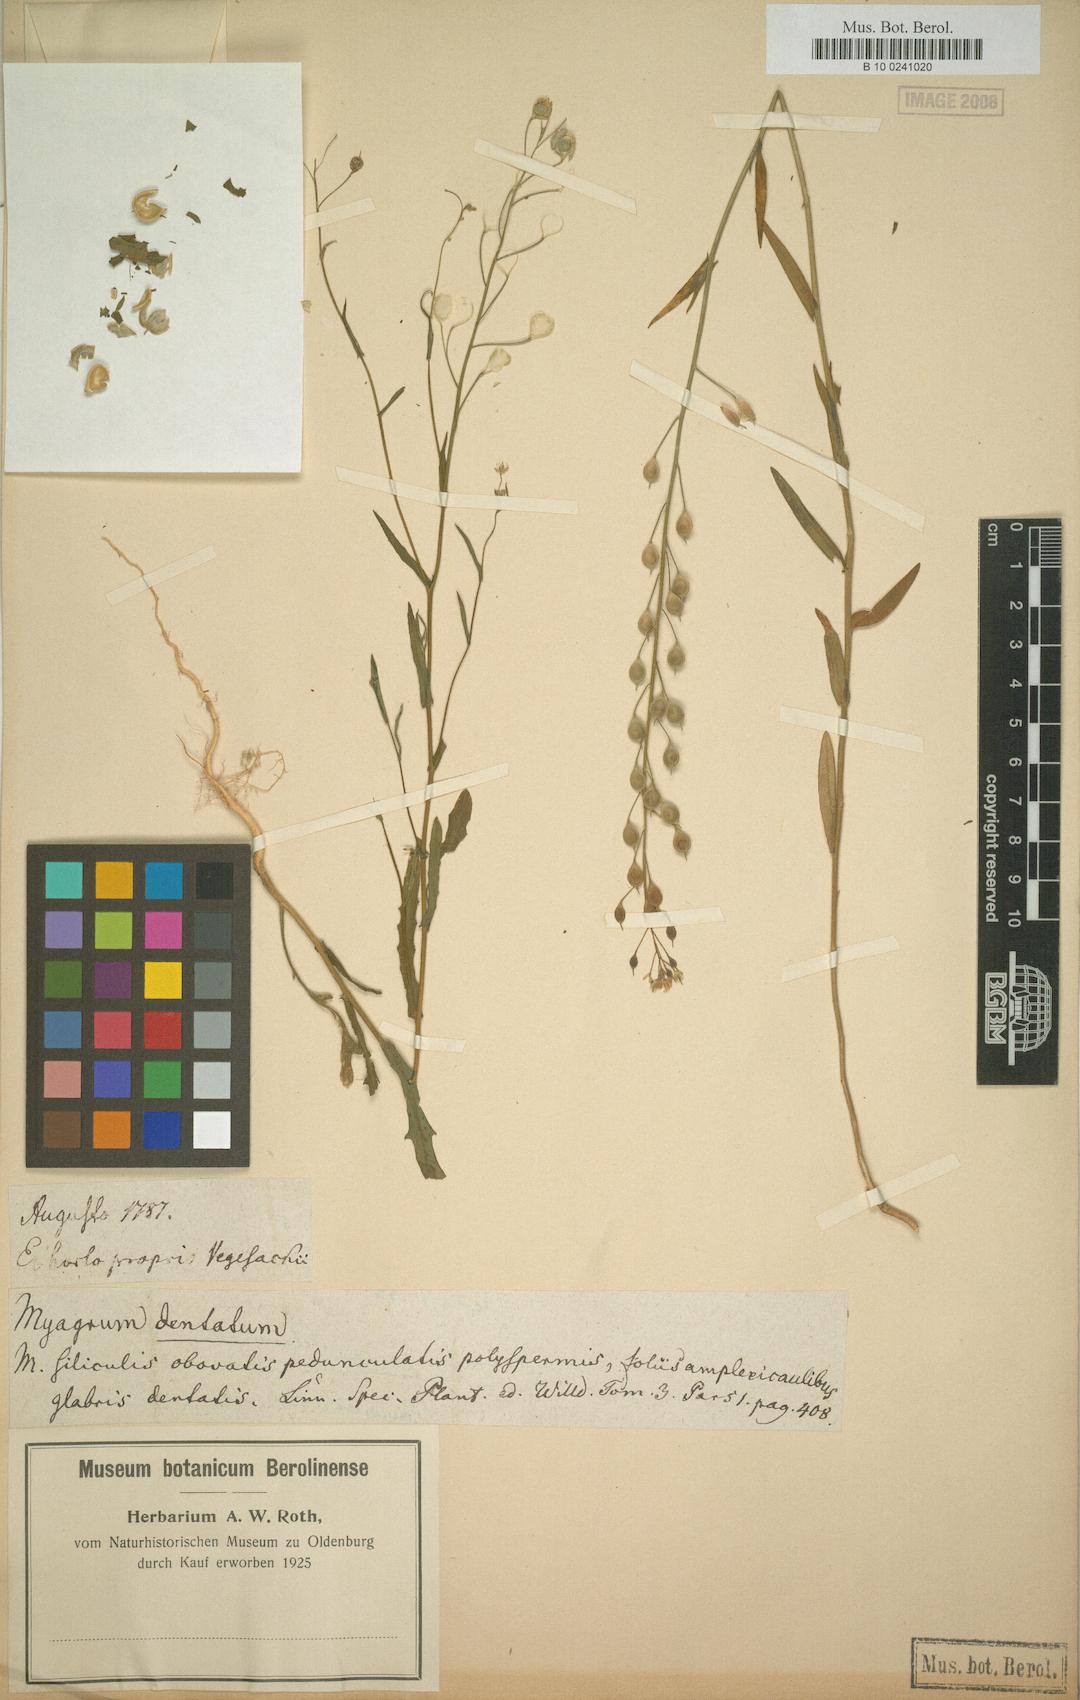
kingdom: Plantae
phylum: Tracheophyta
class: Magnoliopsida
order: Brassicales
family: Brassicaceae
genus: Camelina
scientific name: Camelina alyssum
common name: Gold-of-pleasure
